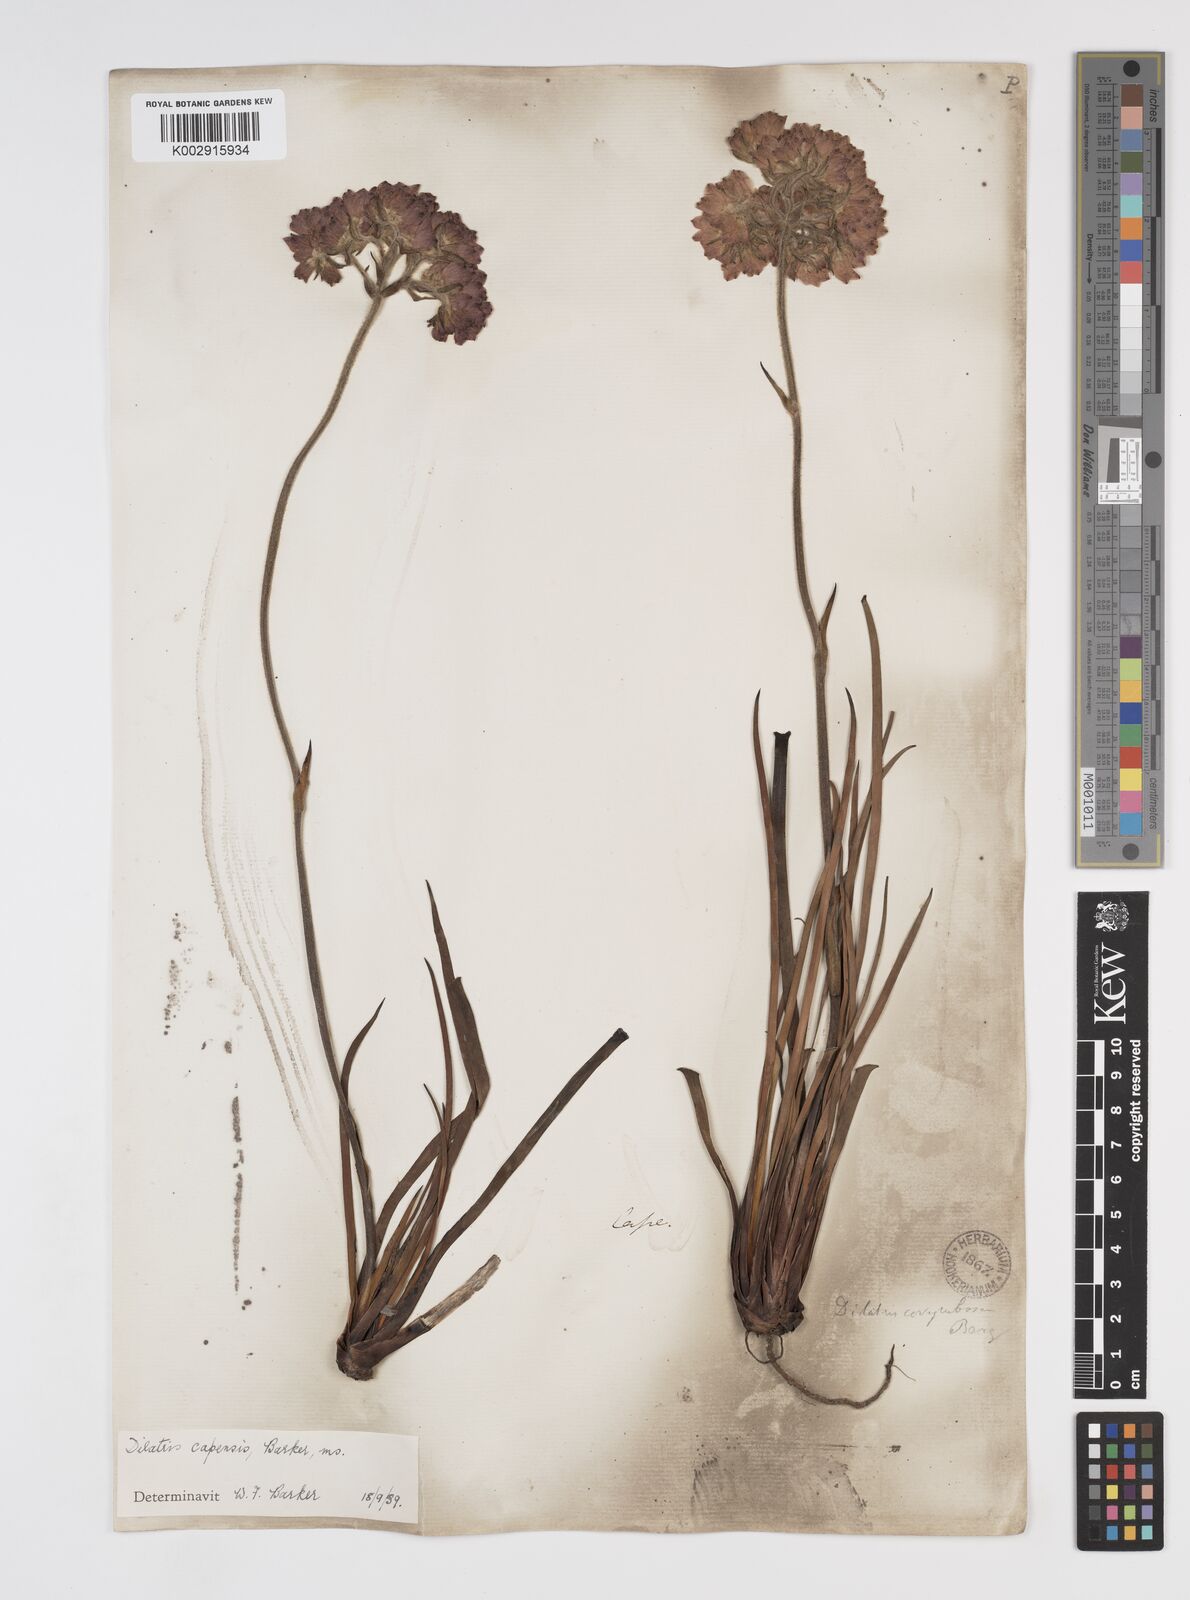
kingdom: Plantae
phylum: Tracheophyta
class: Liliopsida
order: Commelinales
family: Haemodoraceae
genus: Dilatris
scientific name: Dilatris pillansii
